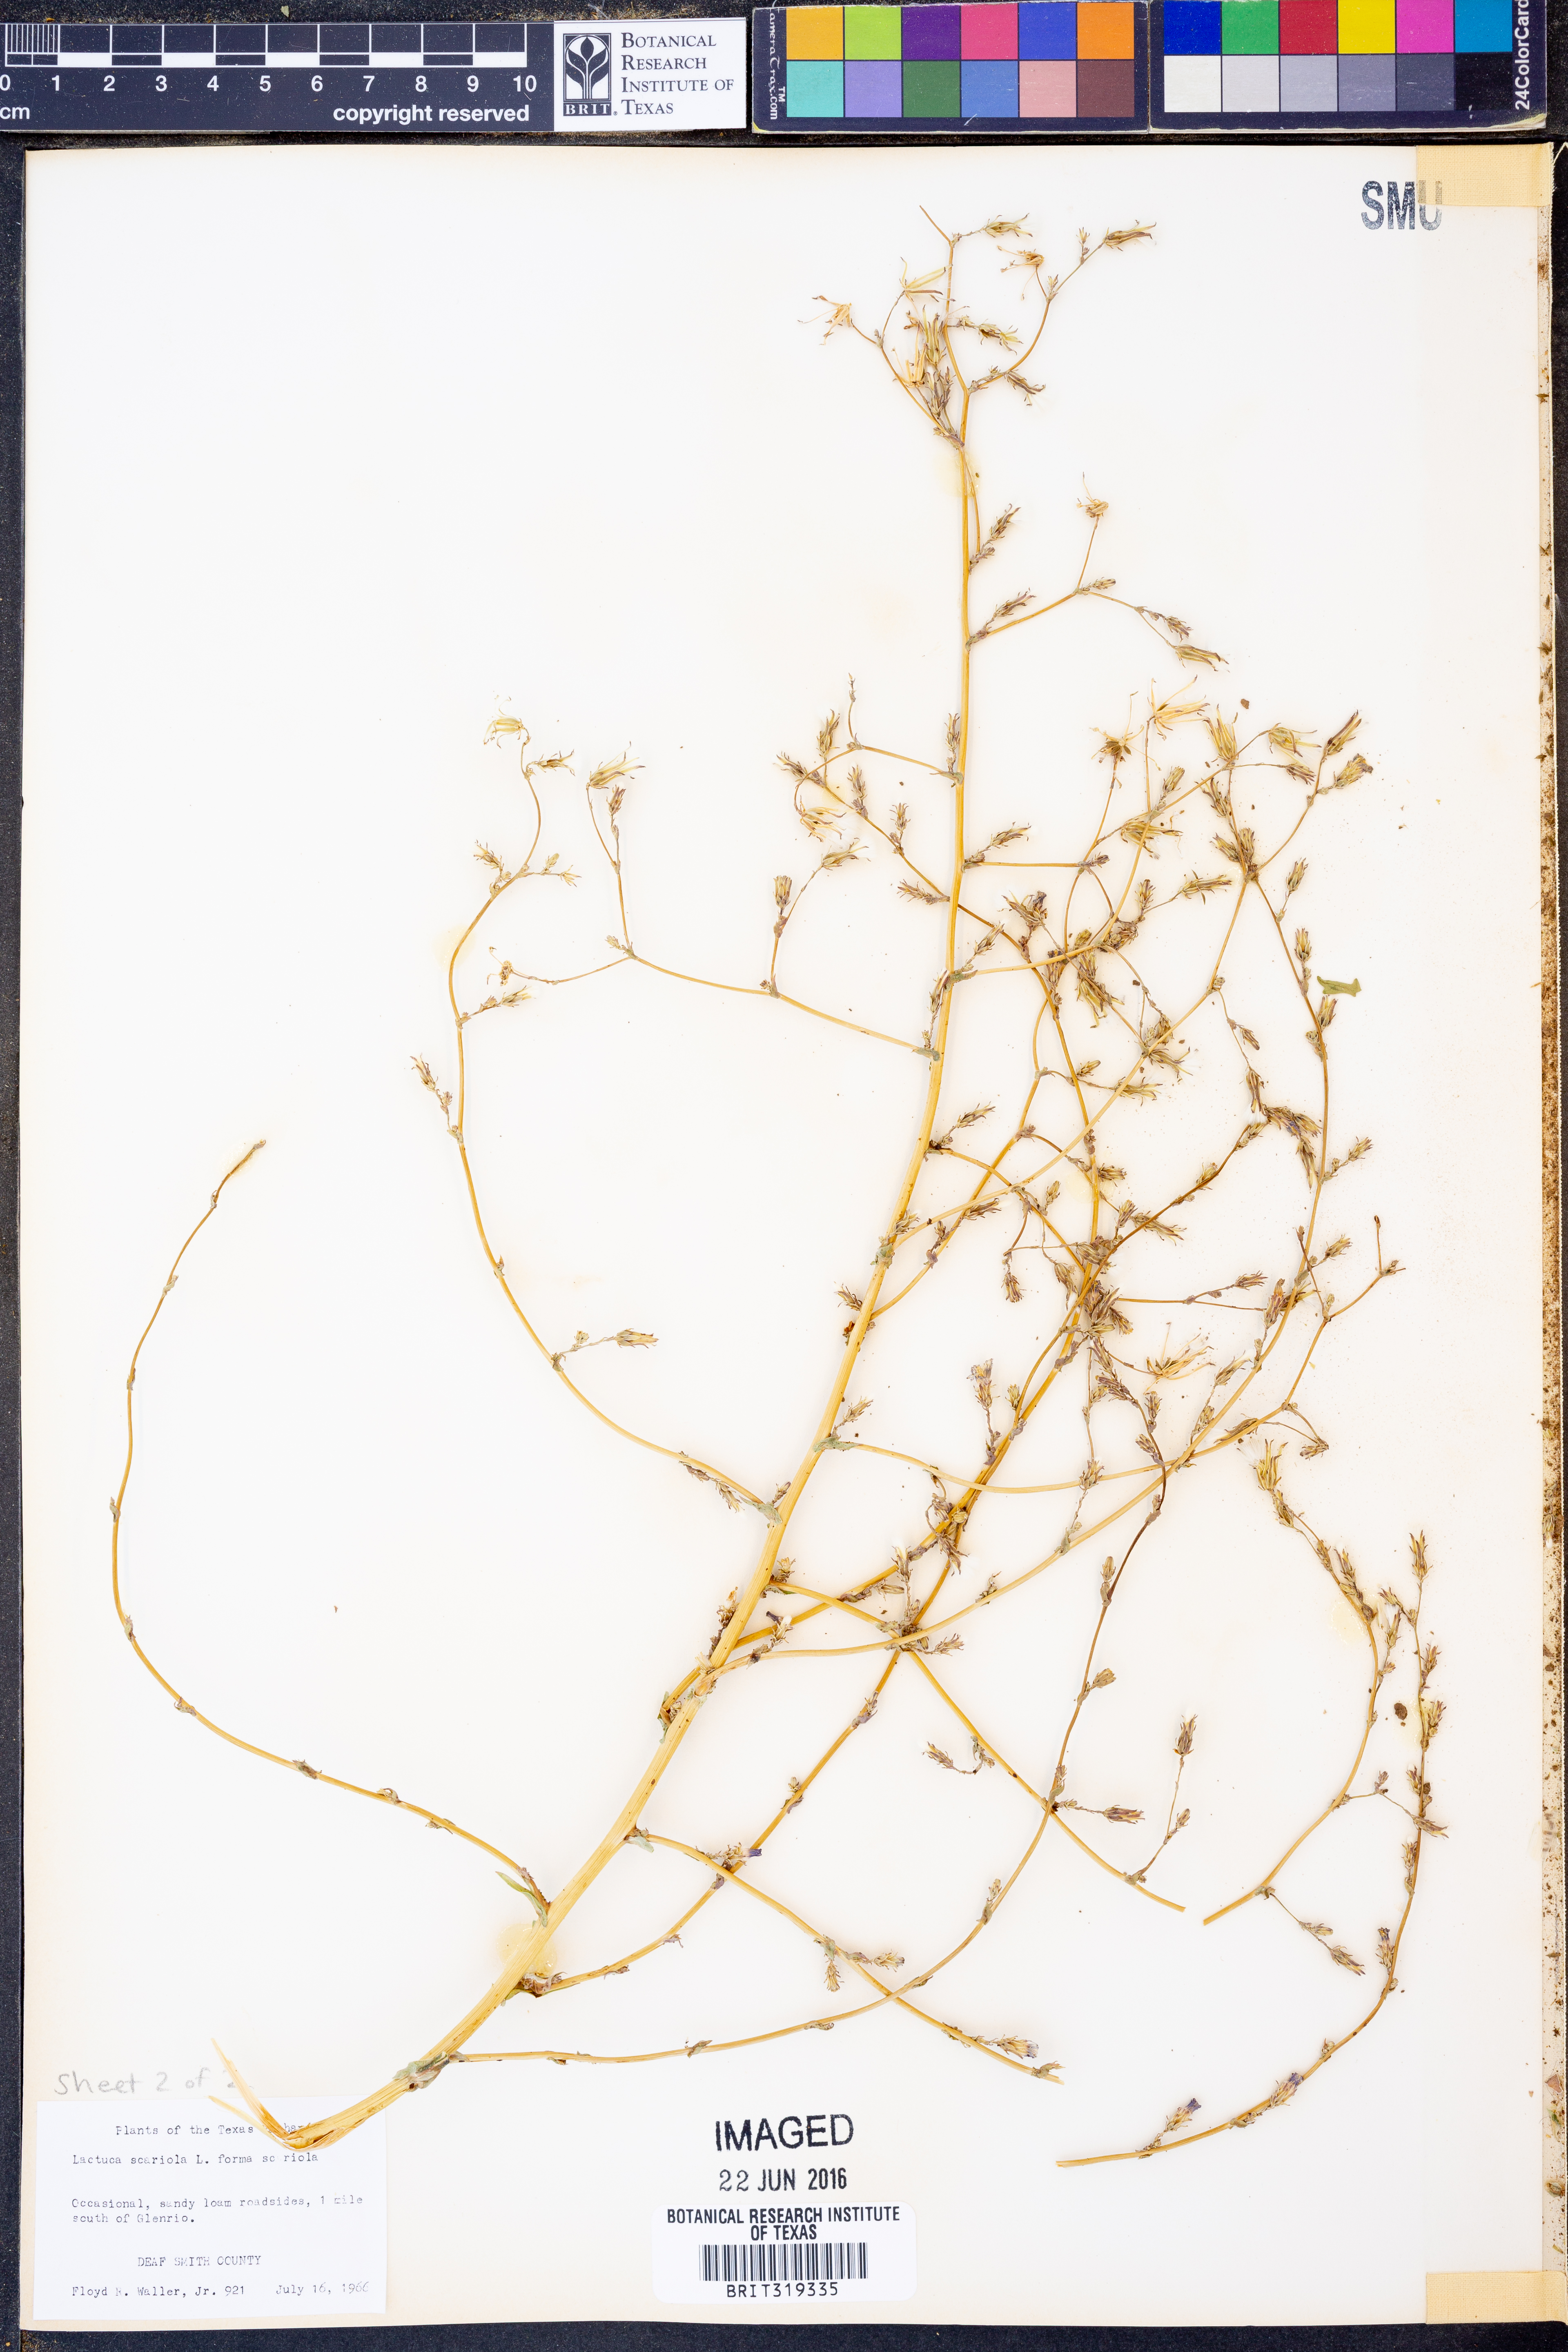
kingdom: Plantae
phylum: Tracheophyta
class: Magnoliopsida
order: Asterales
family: Asteraceae
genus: Lactuca
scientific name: Lactuca serriola
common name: Prickly lettuce
